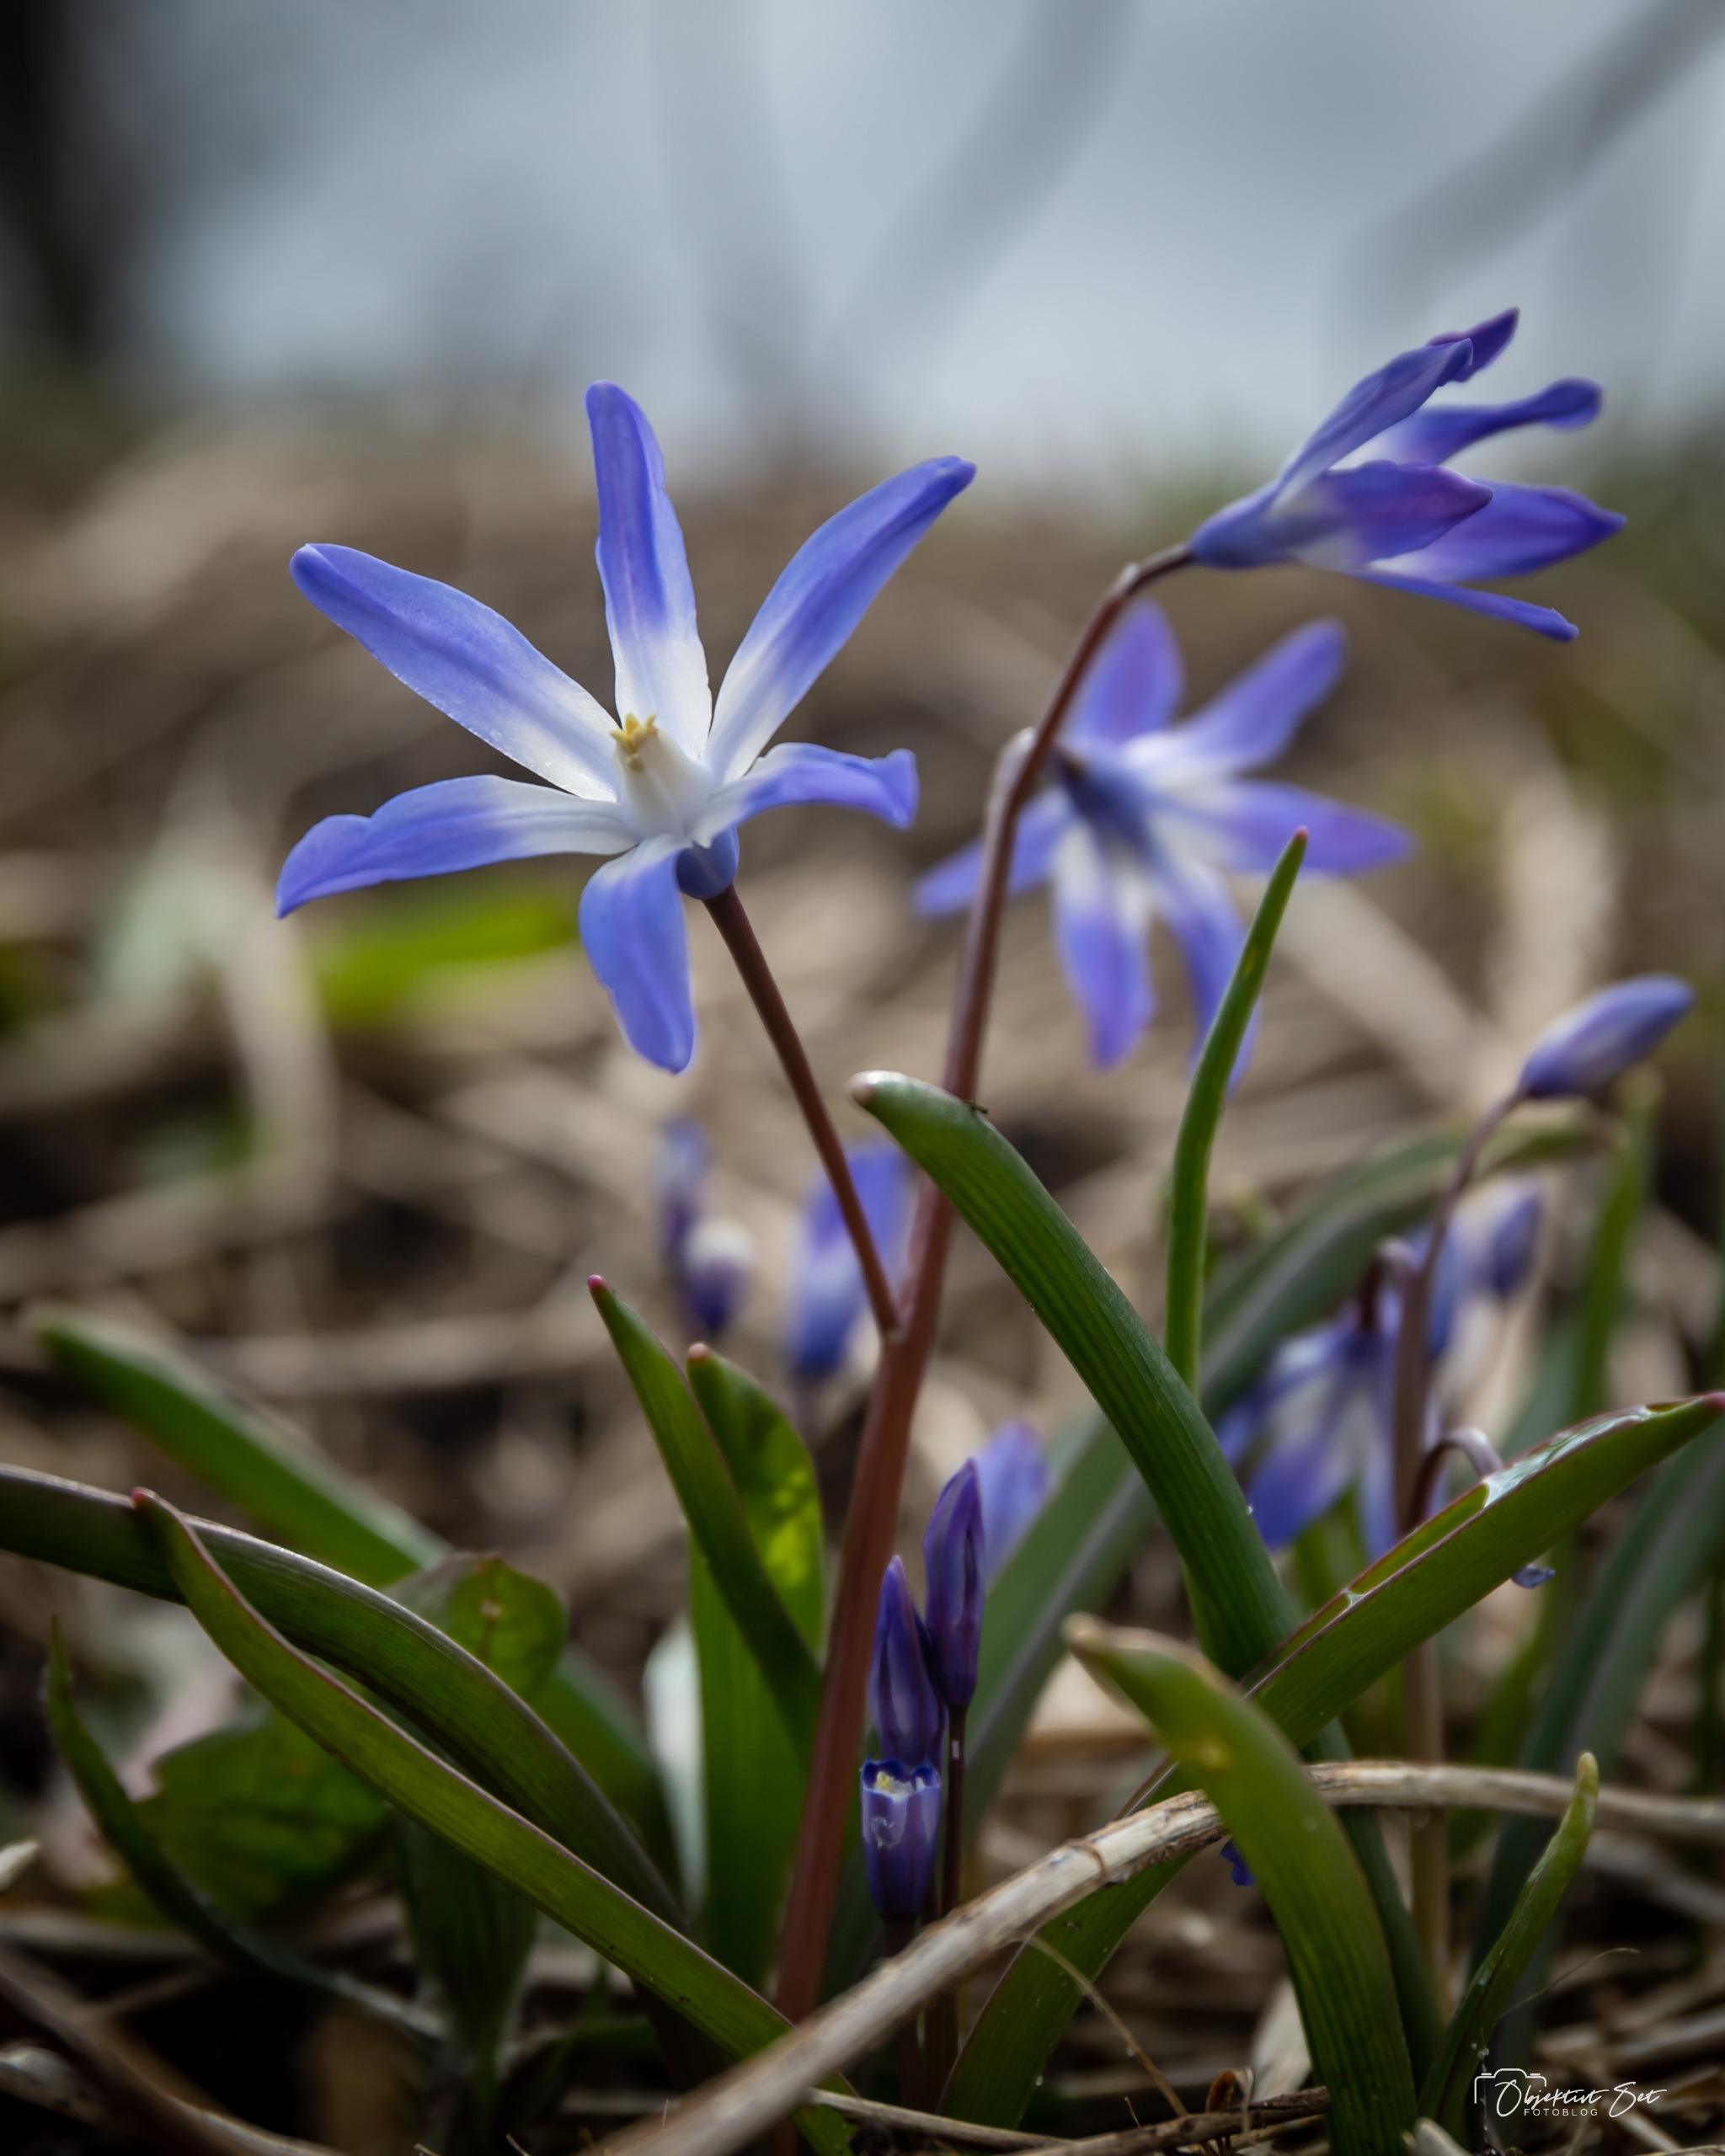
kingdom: Plantae
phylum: Tracheophyta
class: Liliopsida
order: Asparagales
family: Asparagaceae
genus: Scilla
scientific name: Scilla forbesii
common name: Almindelig snepryd
